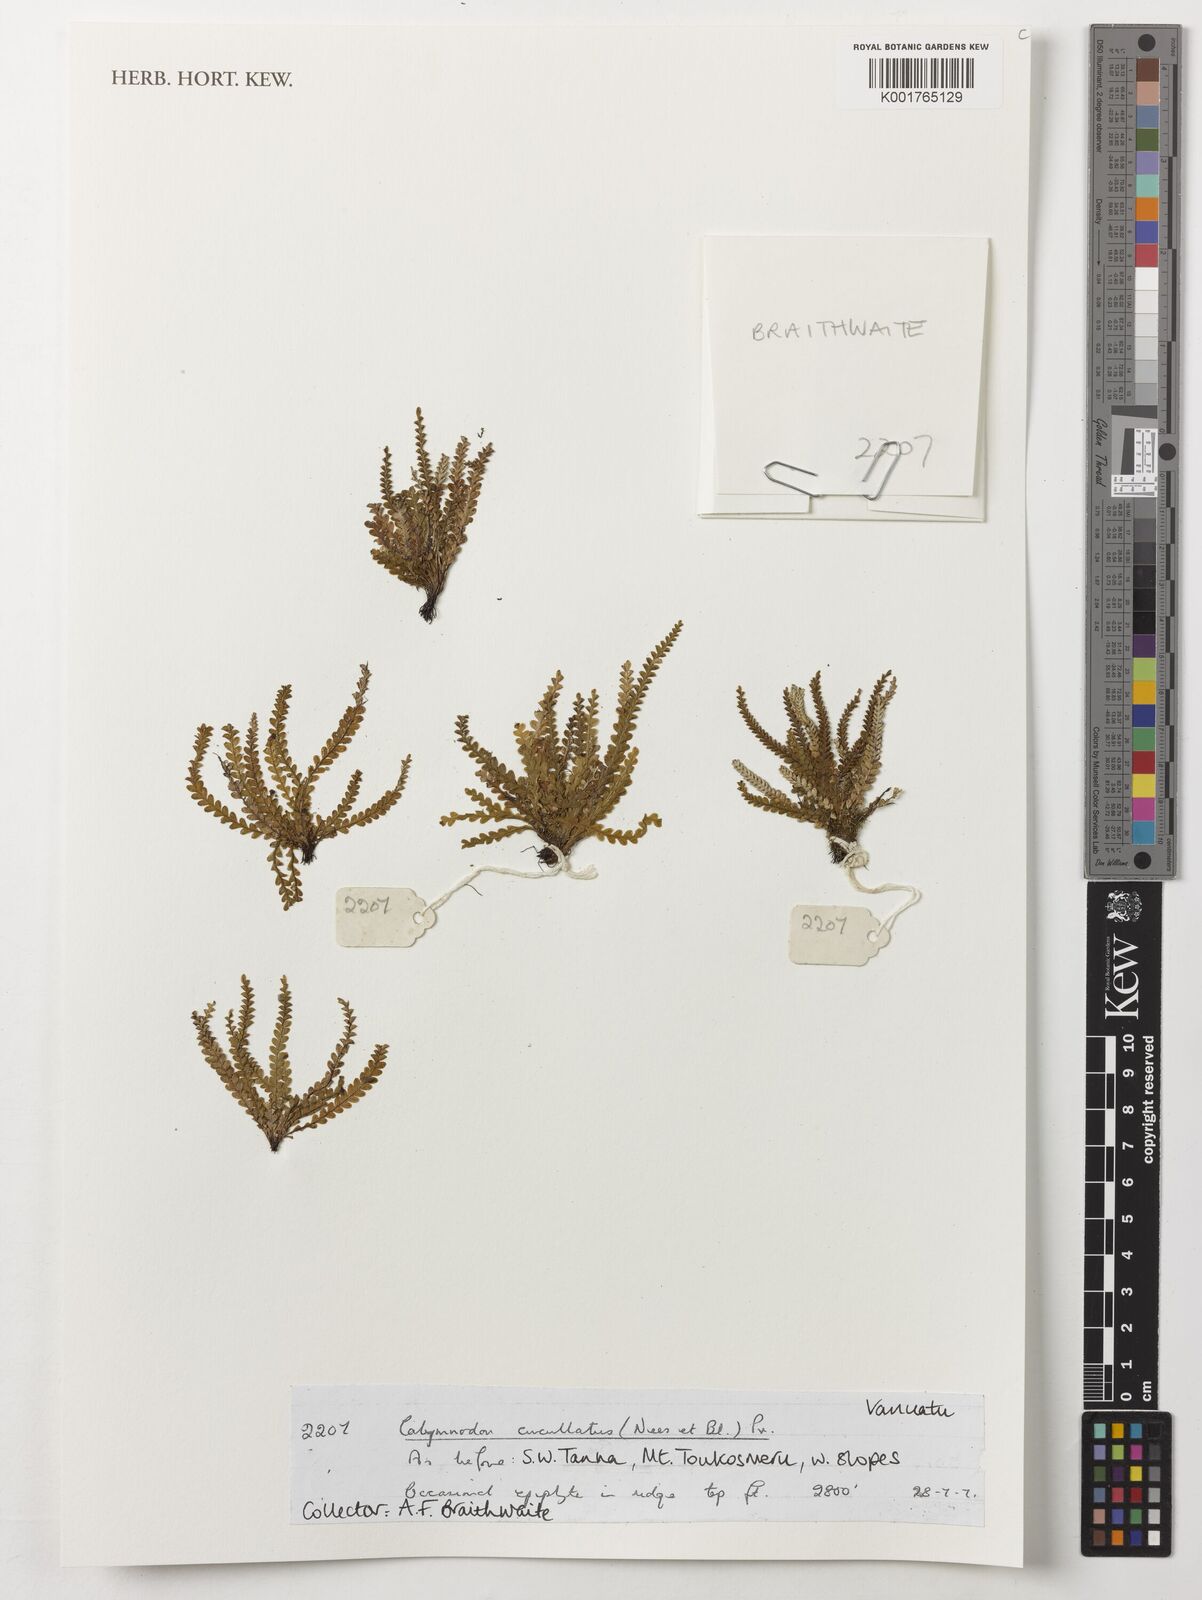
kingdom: Plantae
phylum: Tracheophyta
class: Polypodiopsida
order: Polypodiales
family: Polypodiaceae
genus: Calymmodon
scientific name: Calymmodon cucullatus
